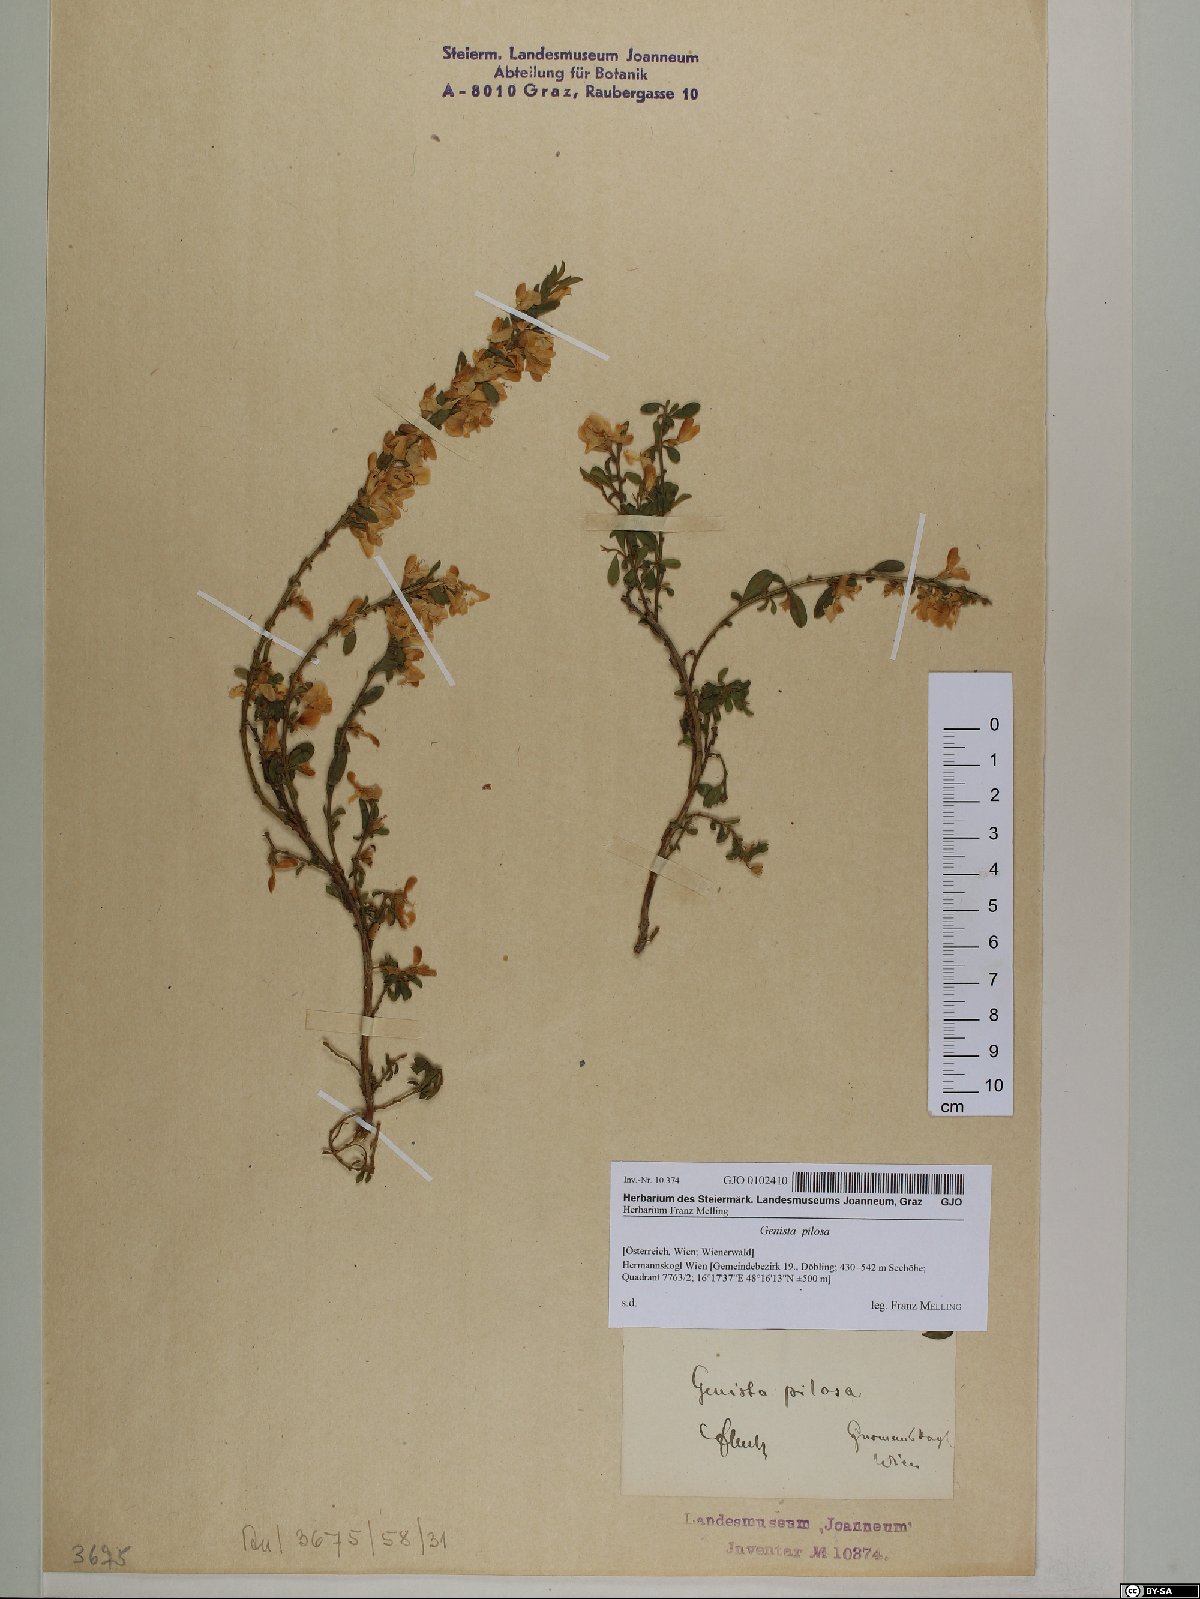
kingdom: Plantae
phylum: Tracheophyta
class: Magnoliopsida
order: Fabales
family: Fabaceae
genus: Genista
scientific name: Genista pilosa
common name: Hairy greenweed
